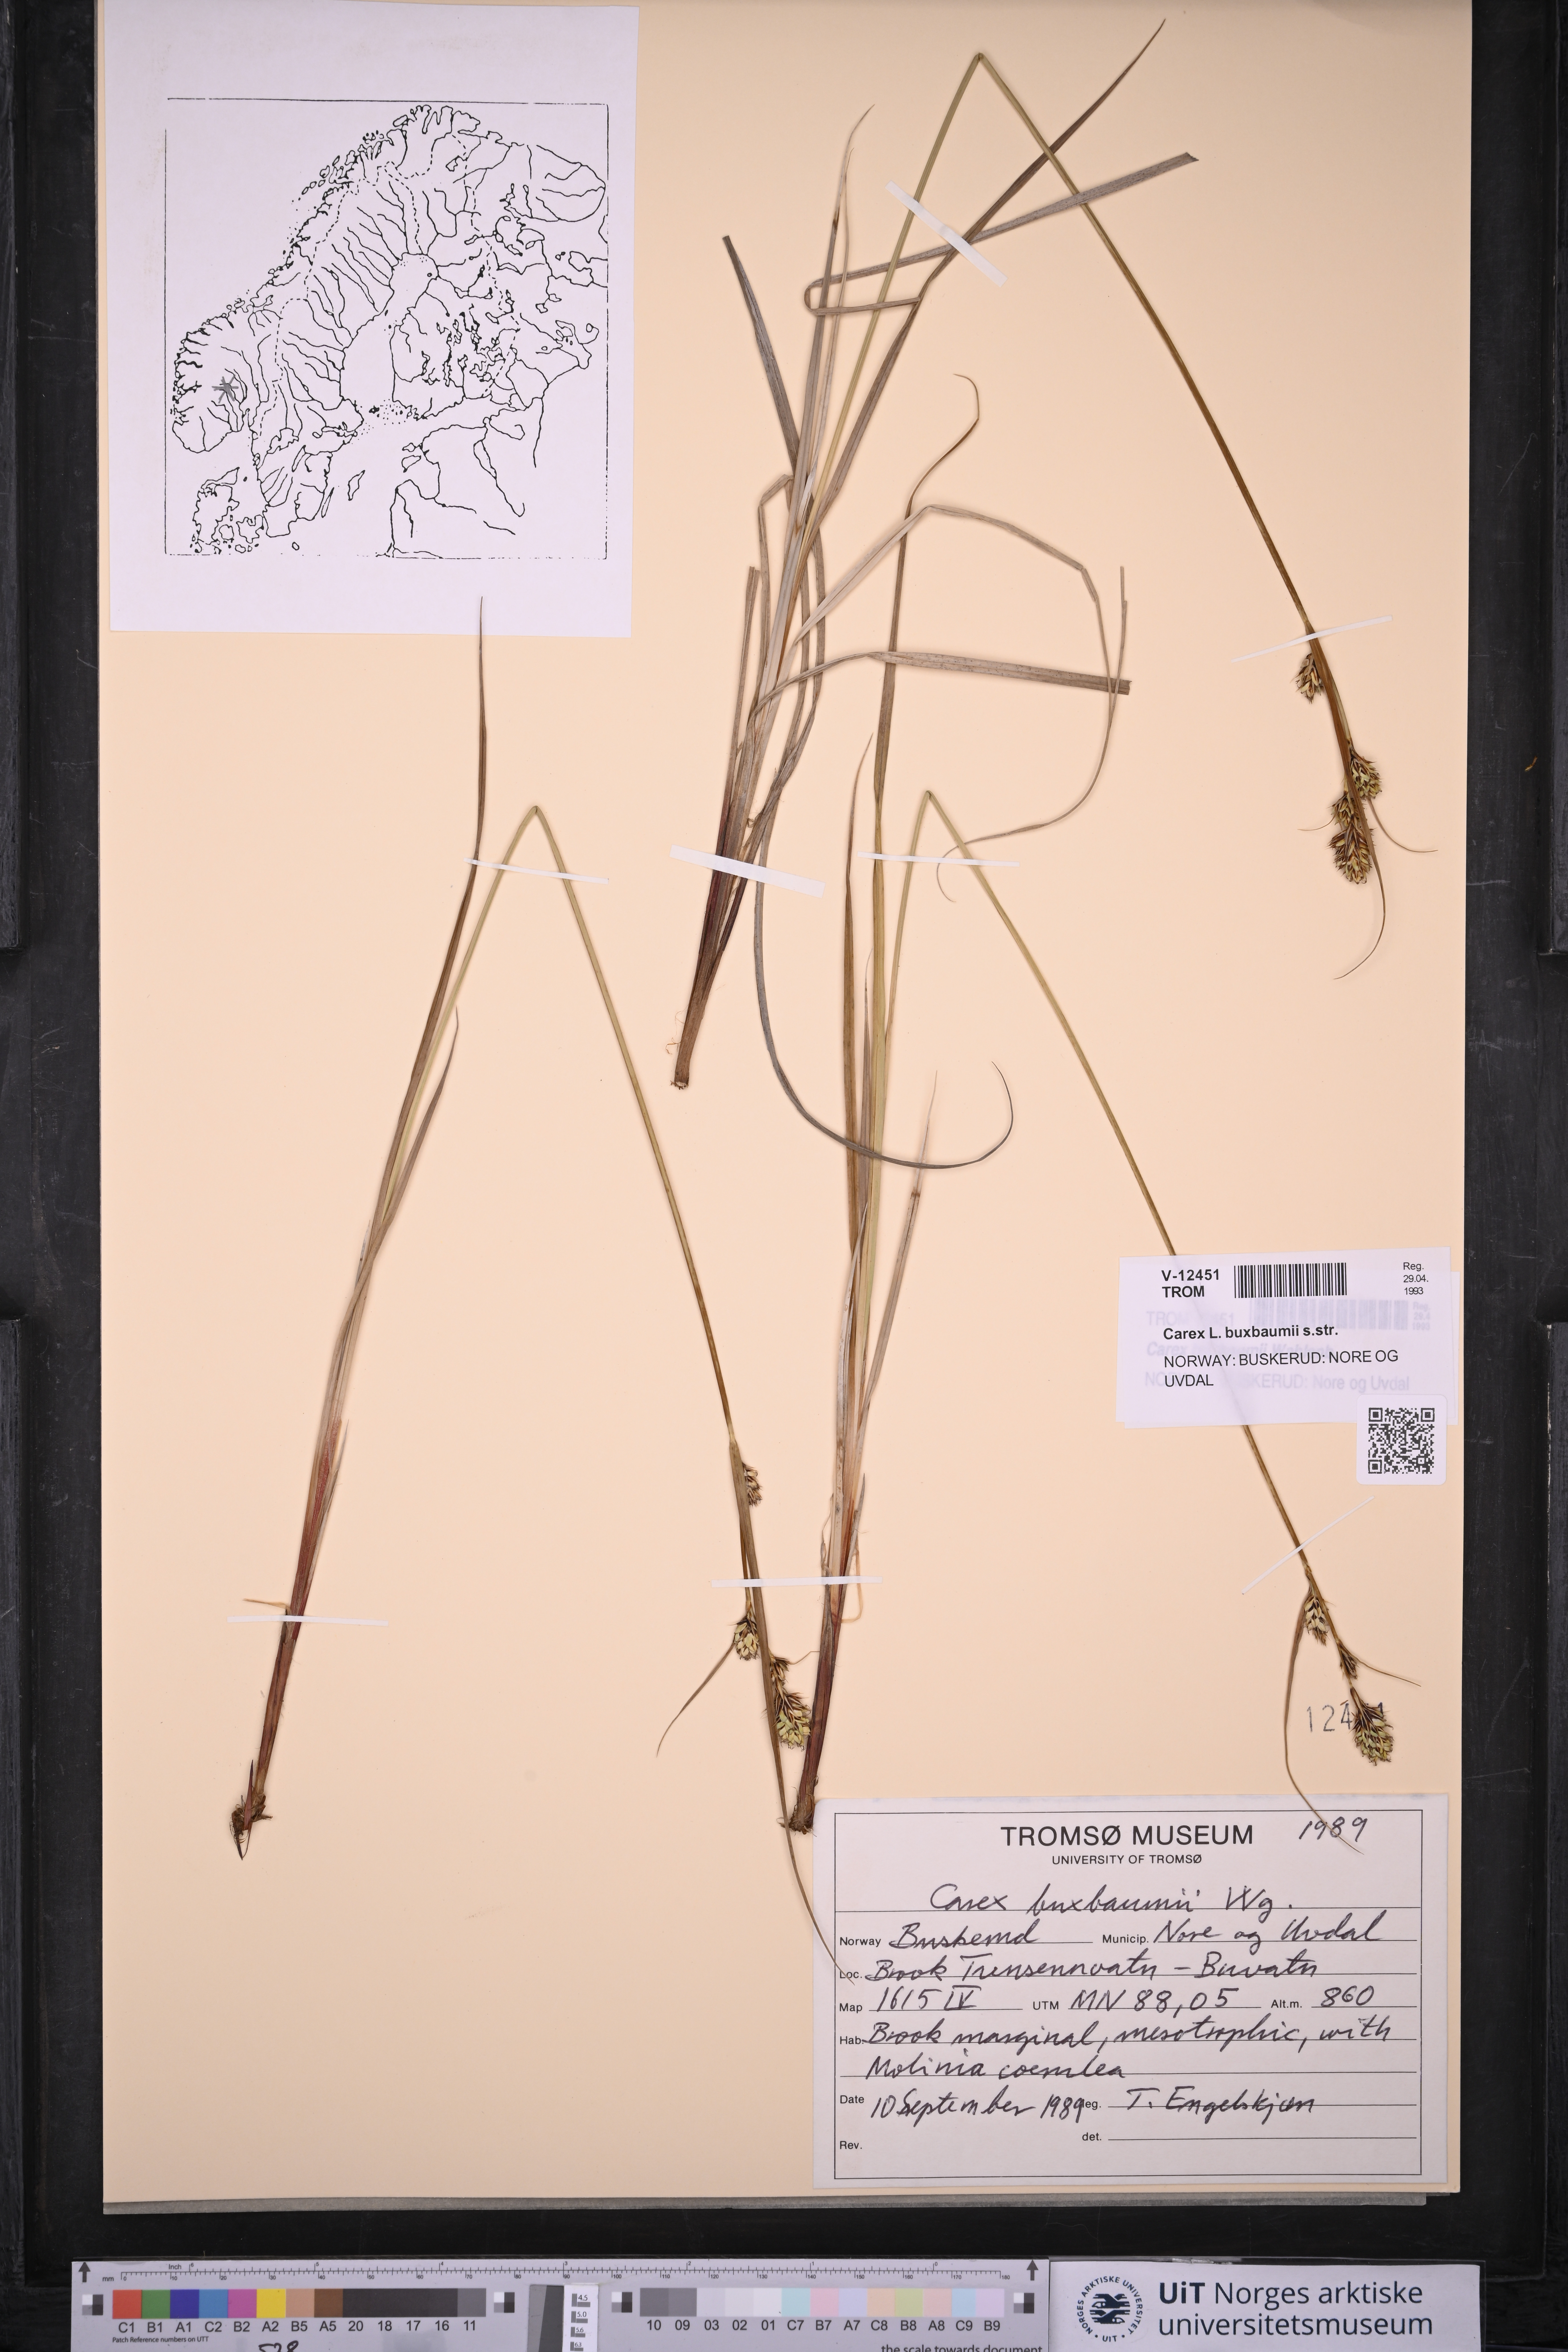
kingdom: Plantae
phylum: Tracheophyta
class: Liliopsida
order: Poales
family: Cyperaceae
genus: Carex
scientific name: Carex buxbaumii
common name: Club sedge
